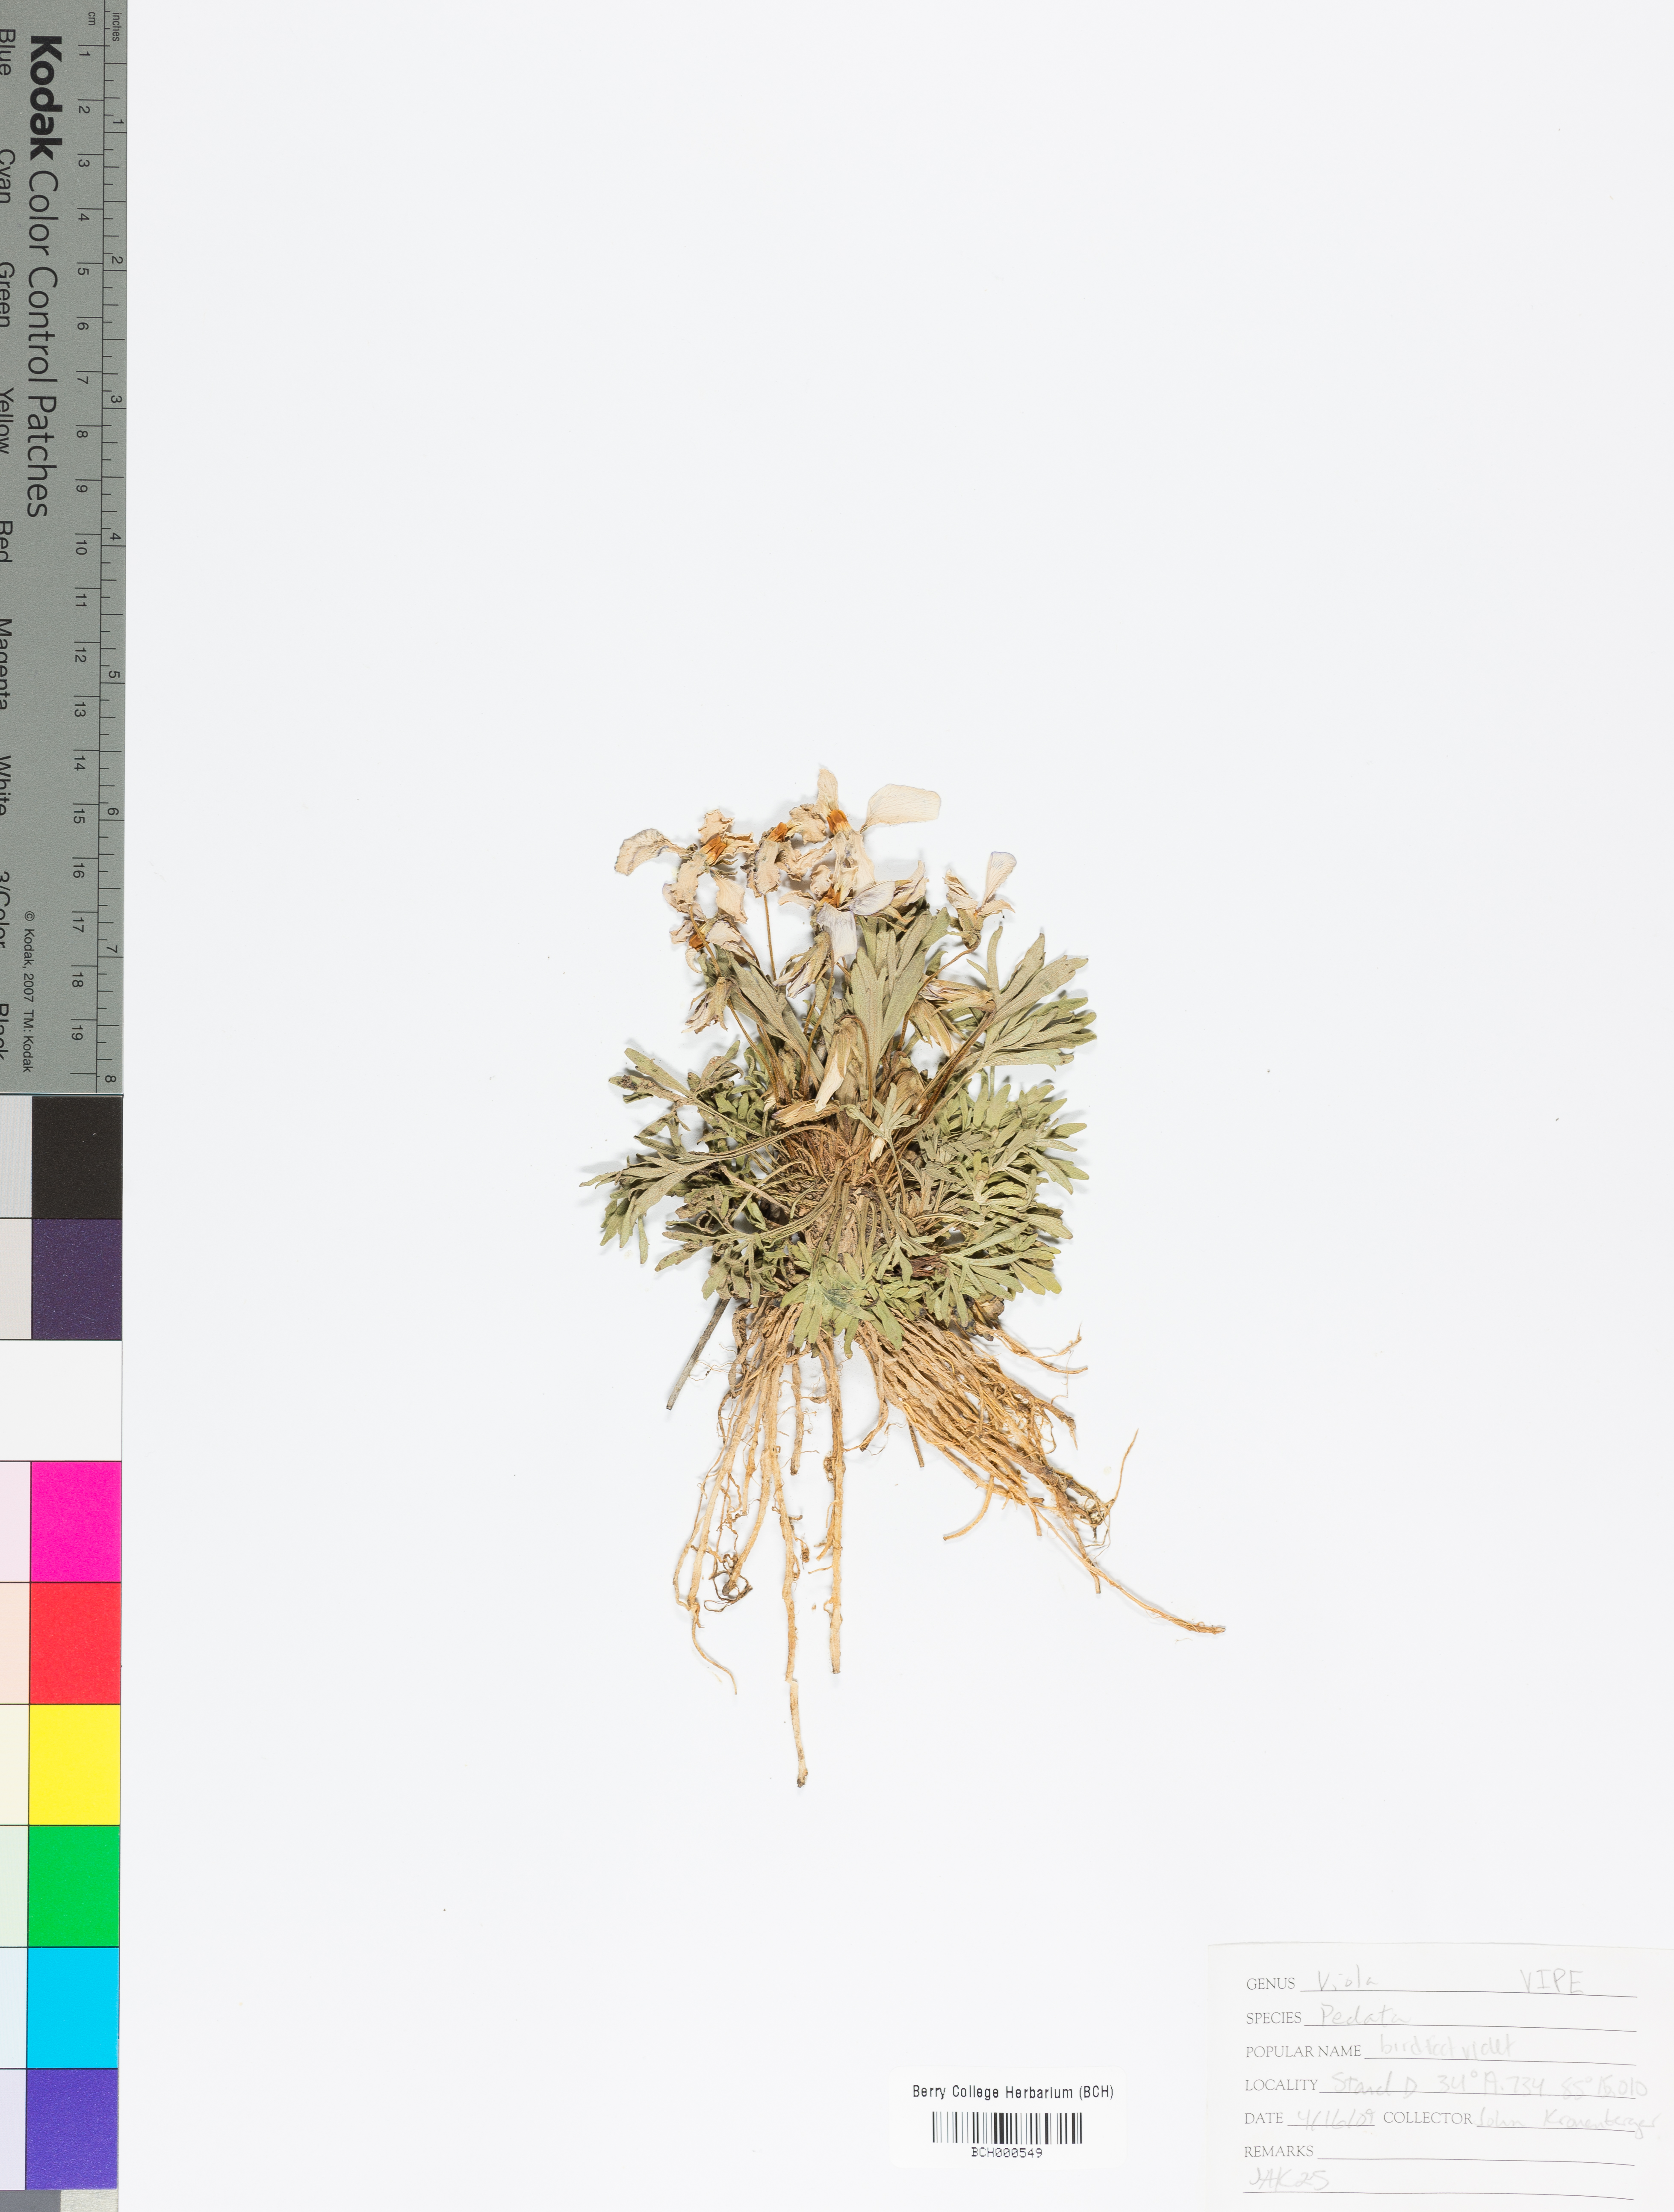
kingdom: Plantae
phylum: Tracheophyta
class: Magnoliopsida
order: Malpighiales
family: Violaceae
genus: Viola
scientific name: Viola pedata
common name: Pansy violet
